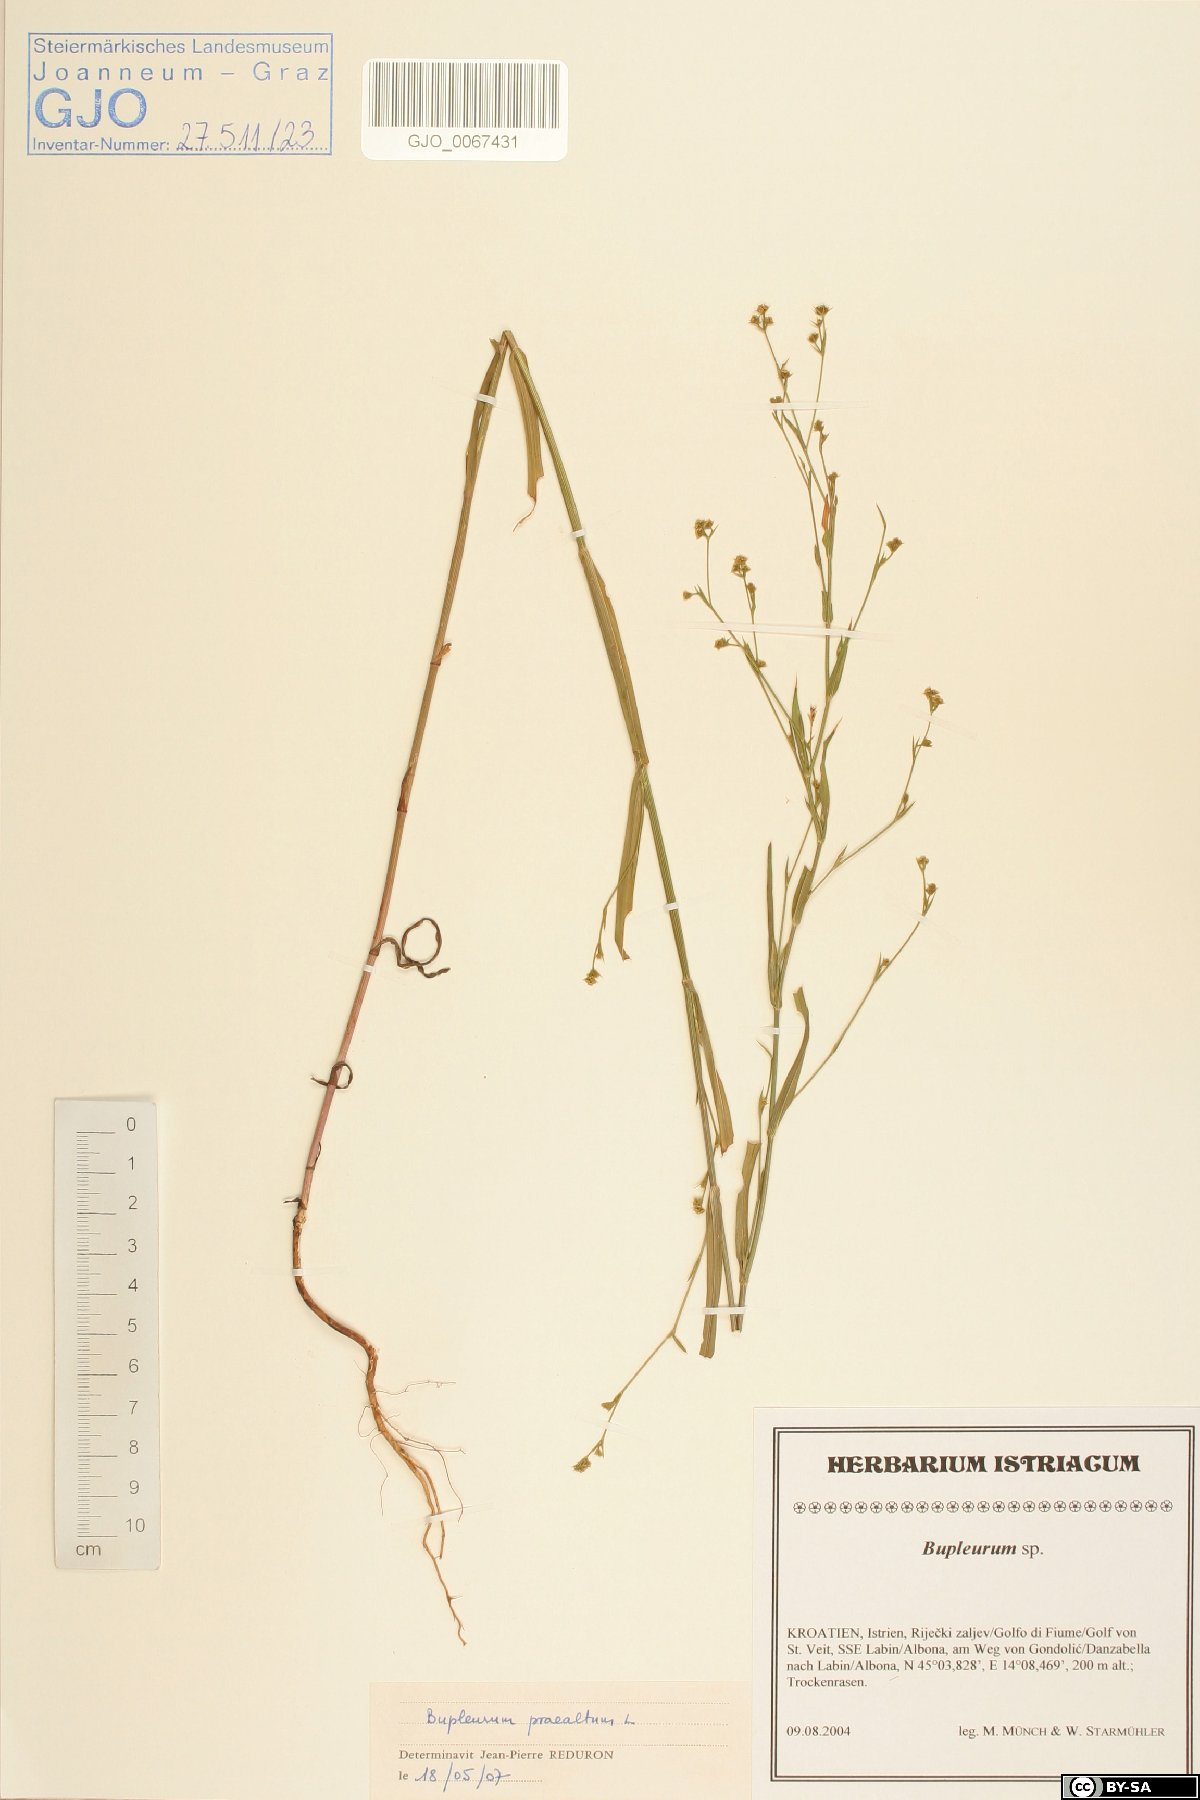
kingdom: Plantae
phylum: Tracheophyta
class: Magnoliopsida
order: Apiales
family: Apiaceae
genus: Bupleurum
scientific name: Bupleurum praealtum
